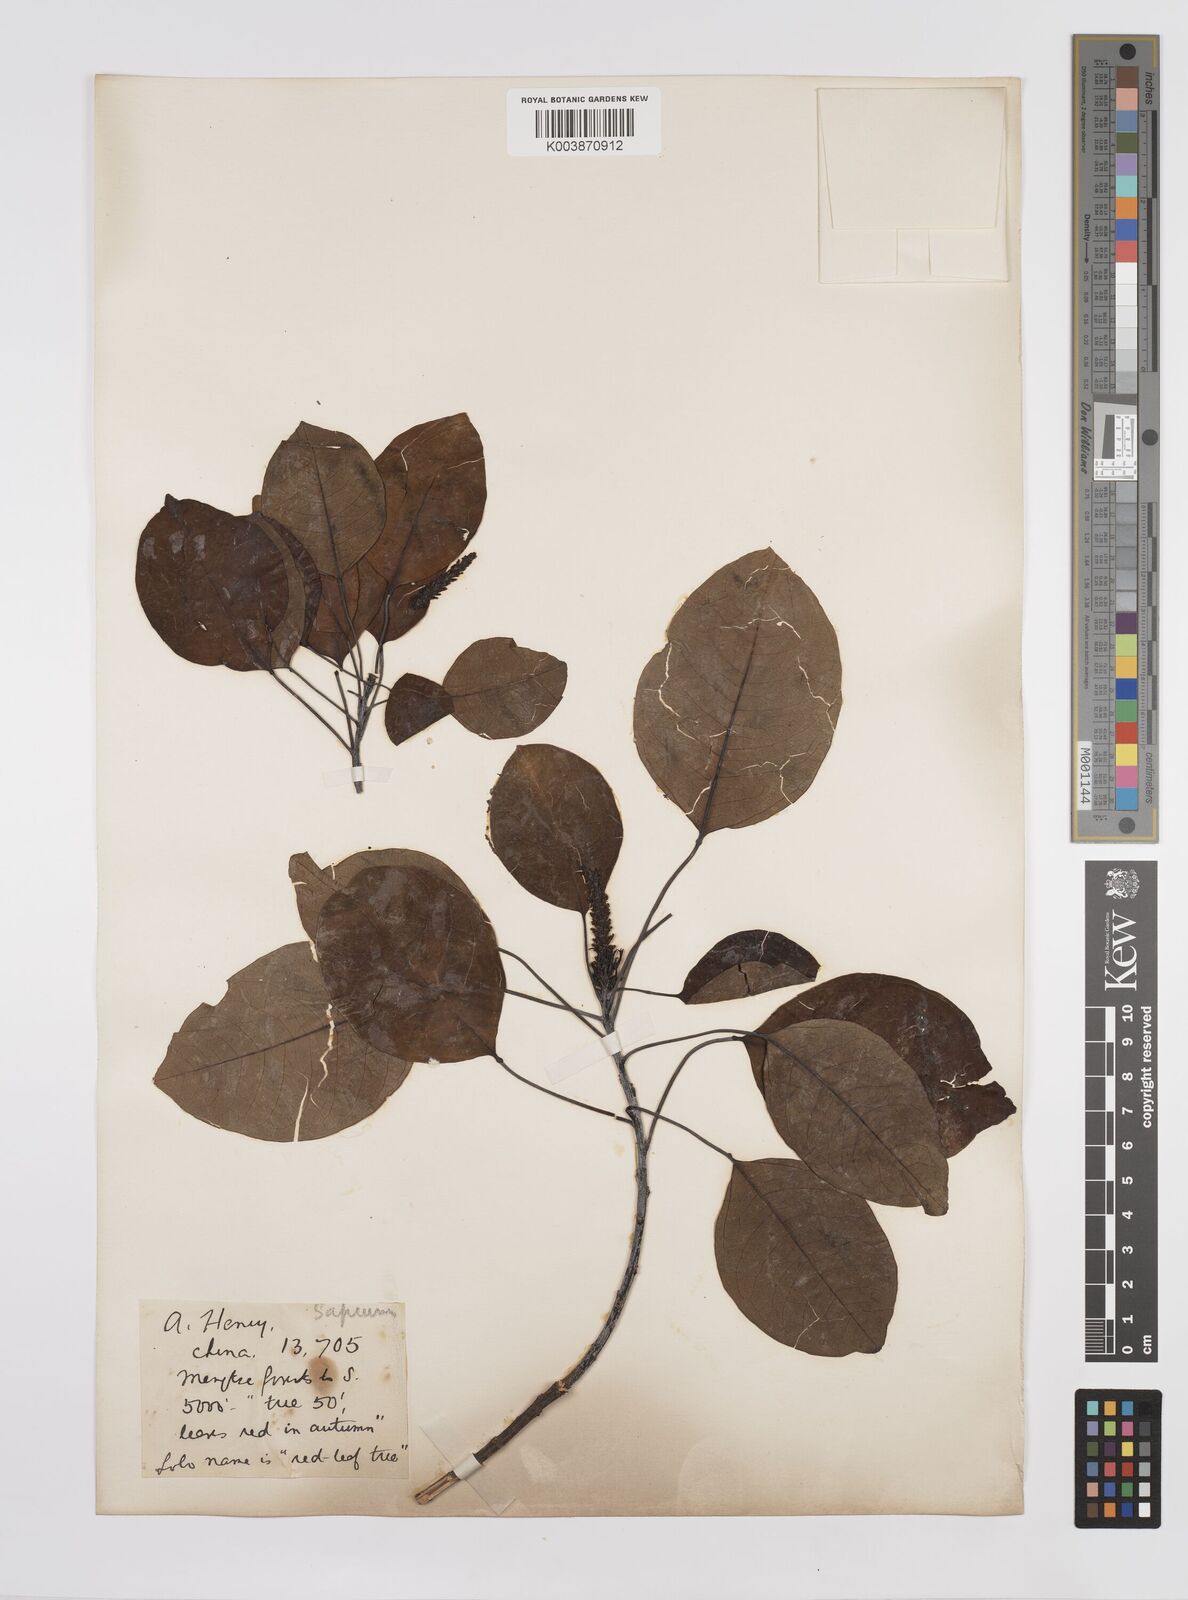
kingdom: Plantae
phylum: Tracheophyta
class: Magnoliopsida
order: Malpighiales
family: Euphorbiaceae
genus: Triadica
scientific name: Triadica cochinchinensis
